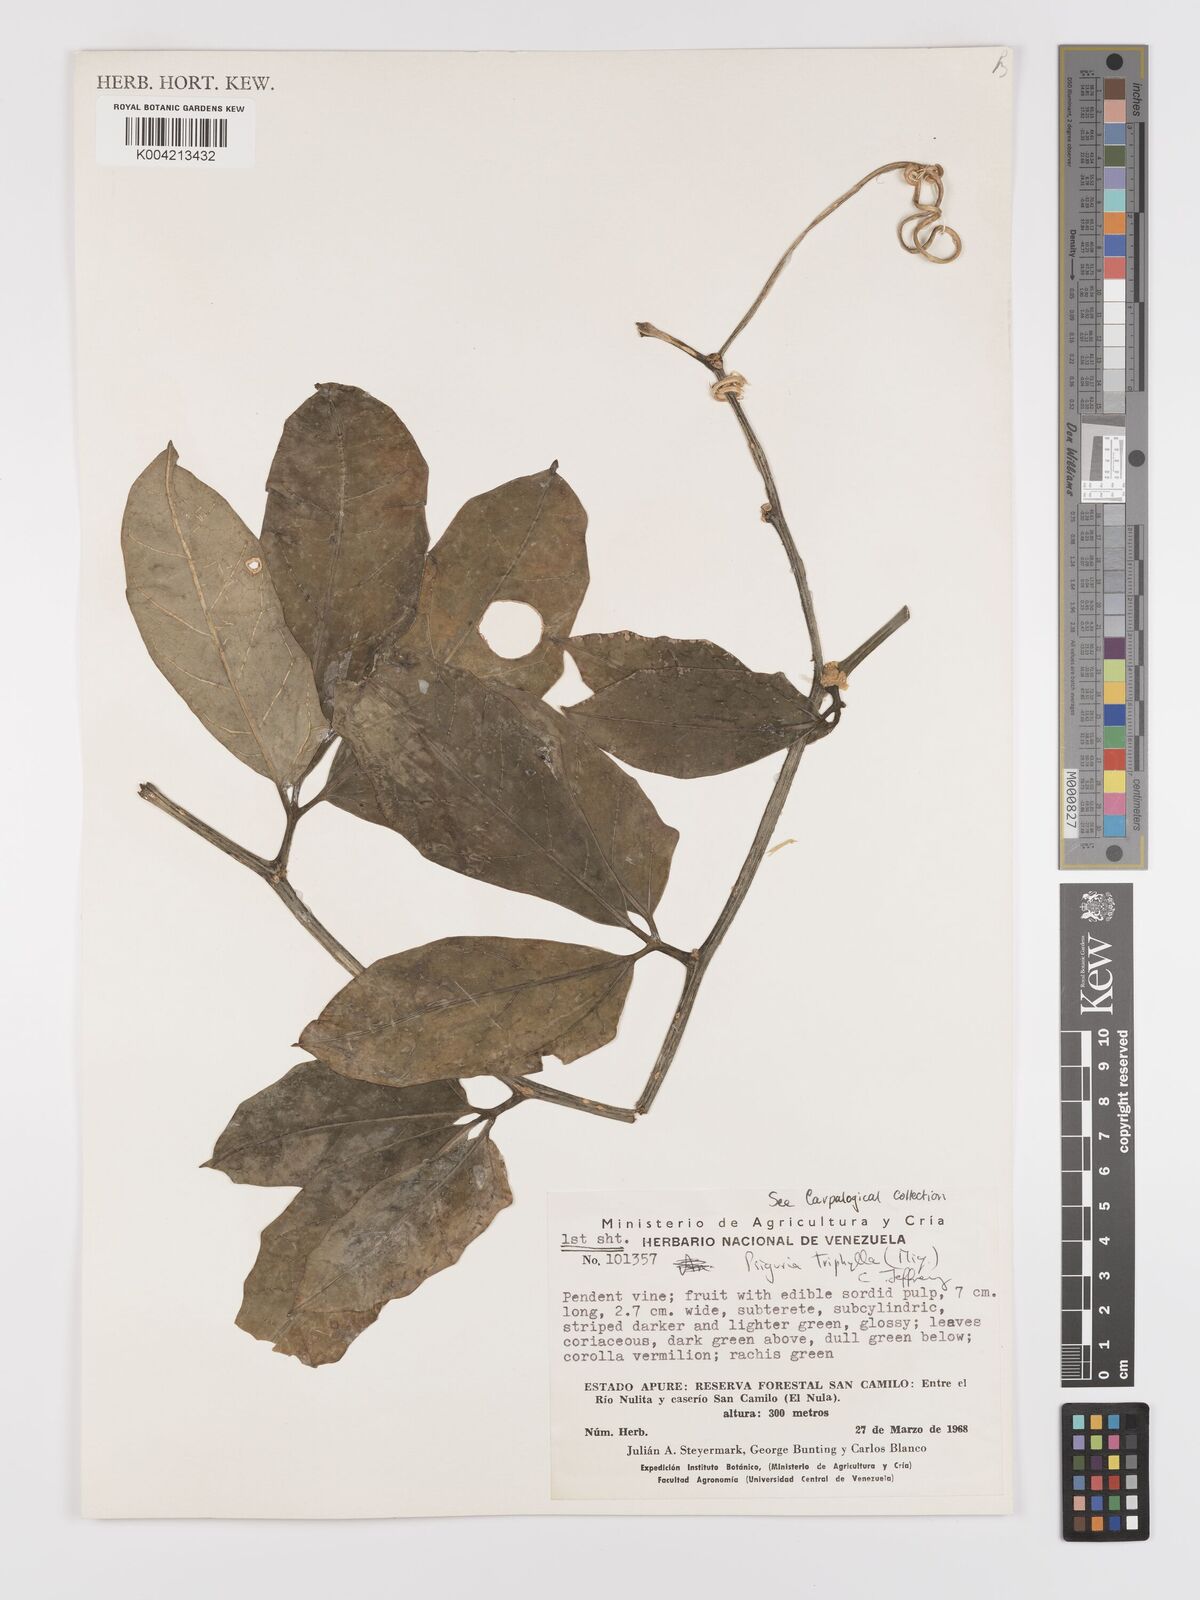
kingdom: Plantae
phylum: Tracheophyta
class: Magnoliopsida
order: Cucurbitales
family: Cucurbitaceae
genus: Psiguria
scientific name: Psiguria triphylla
